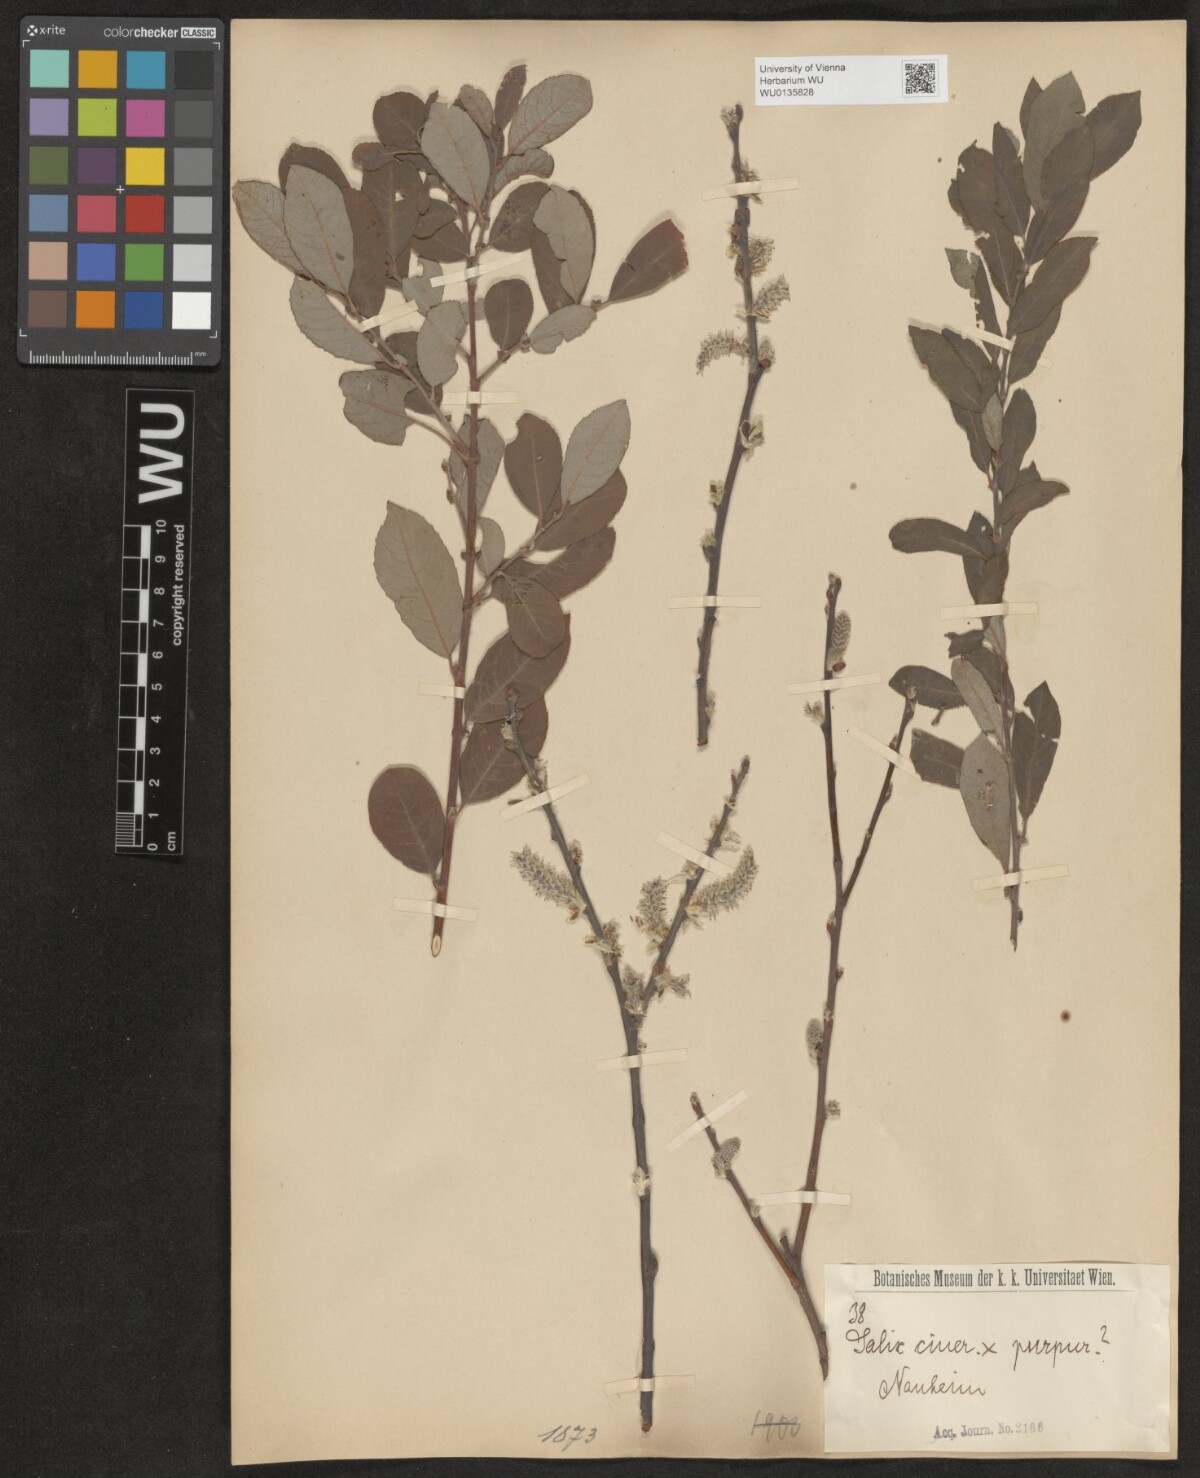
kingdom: Plantae
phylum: Tracheophyta
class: Magnoliopsida
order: Malpighiales
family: Salicaceae
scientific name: Salicaceae
